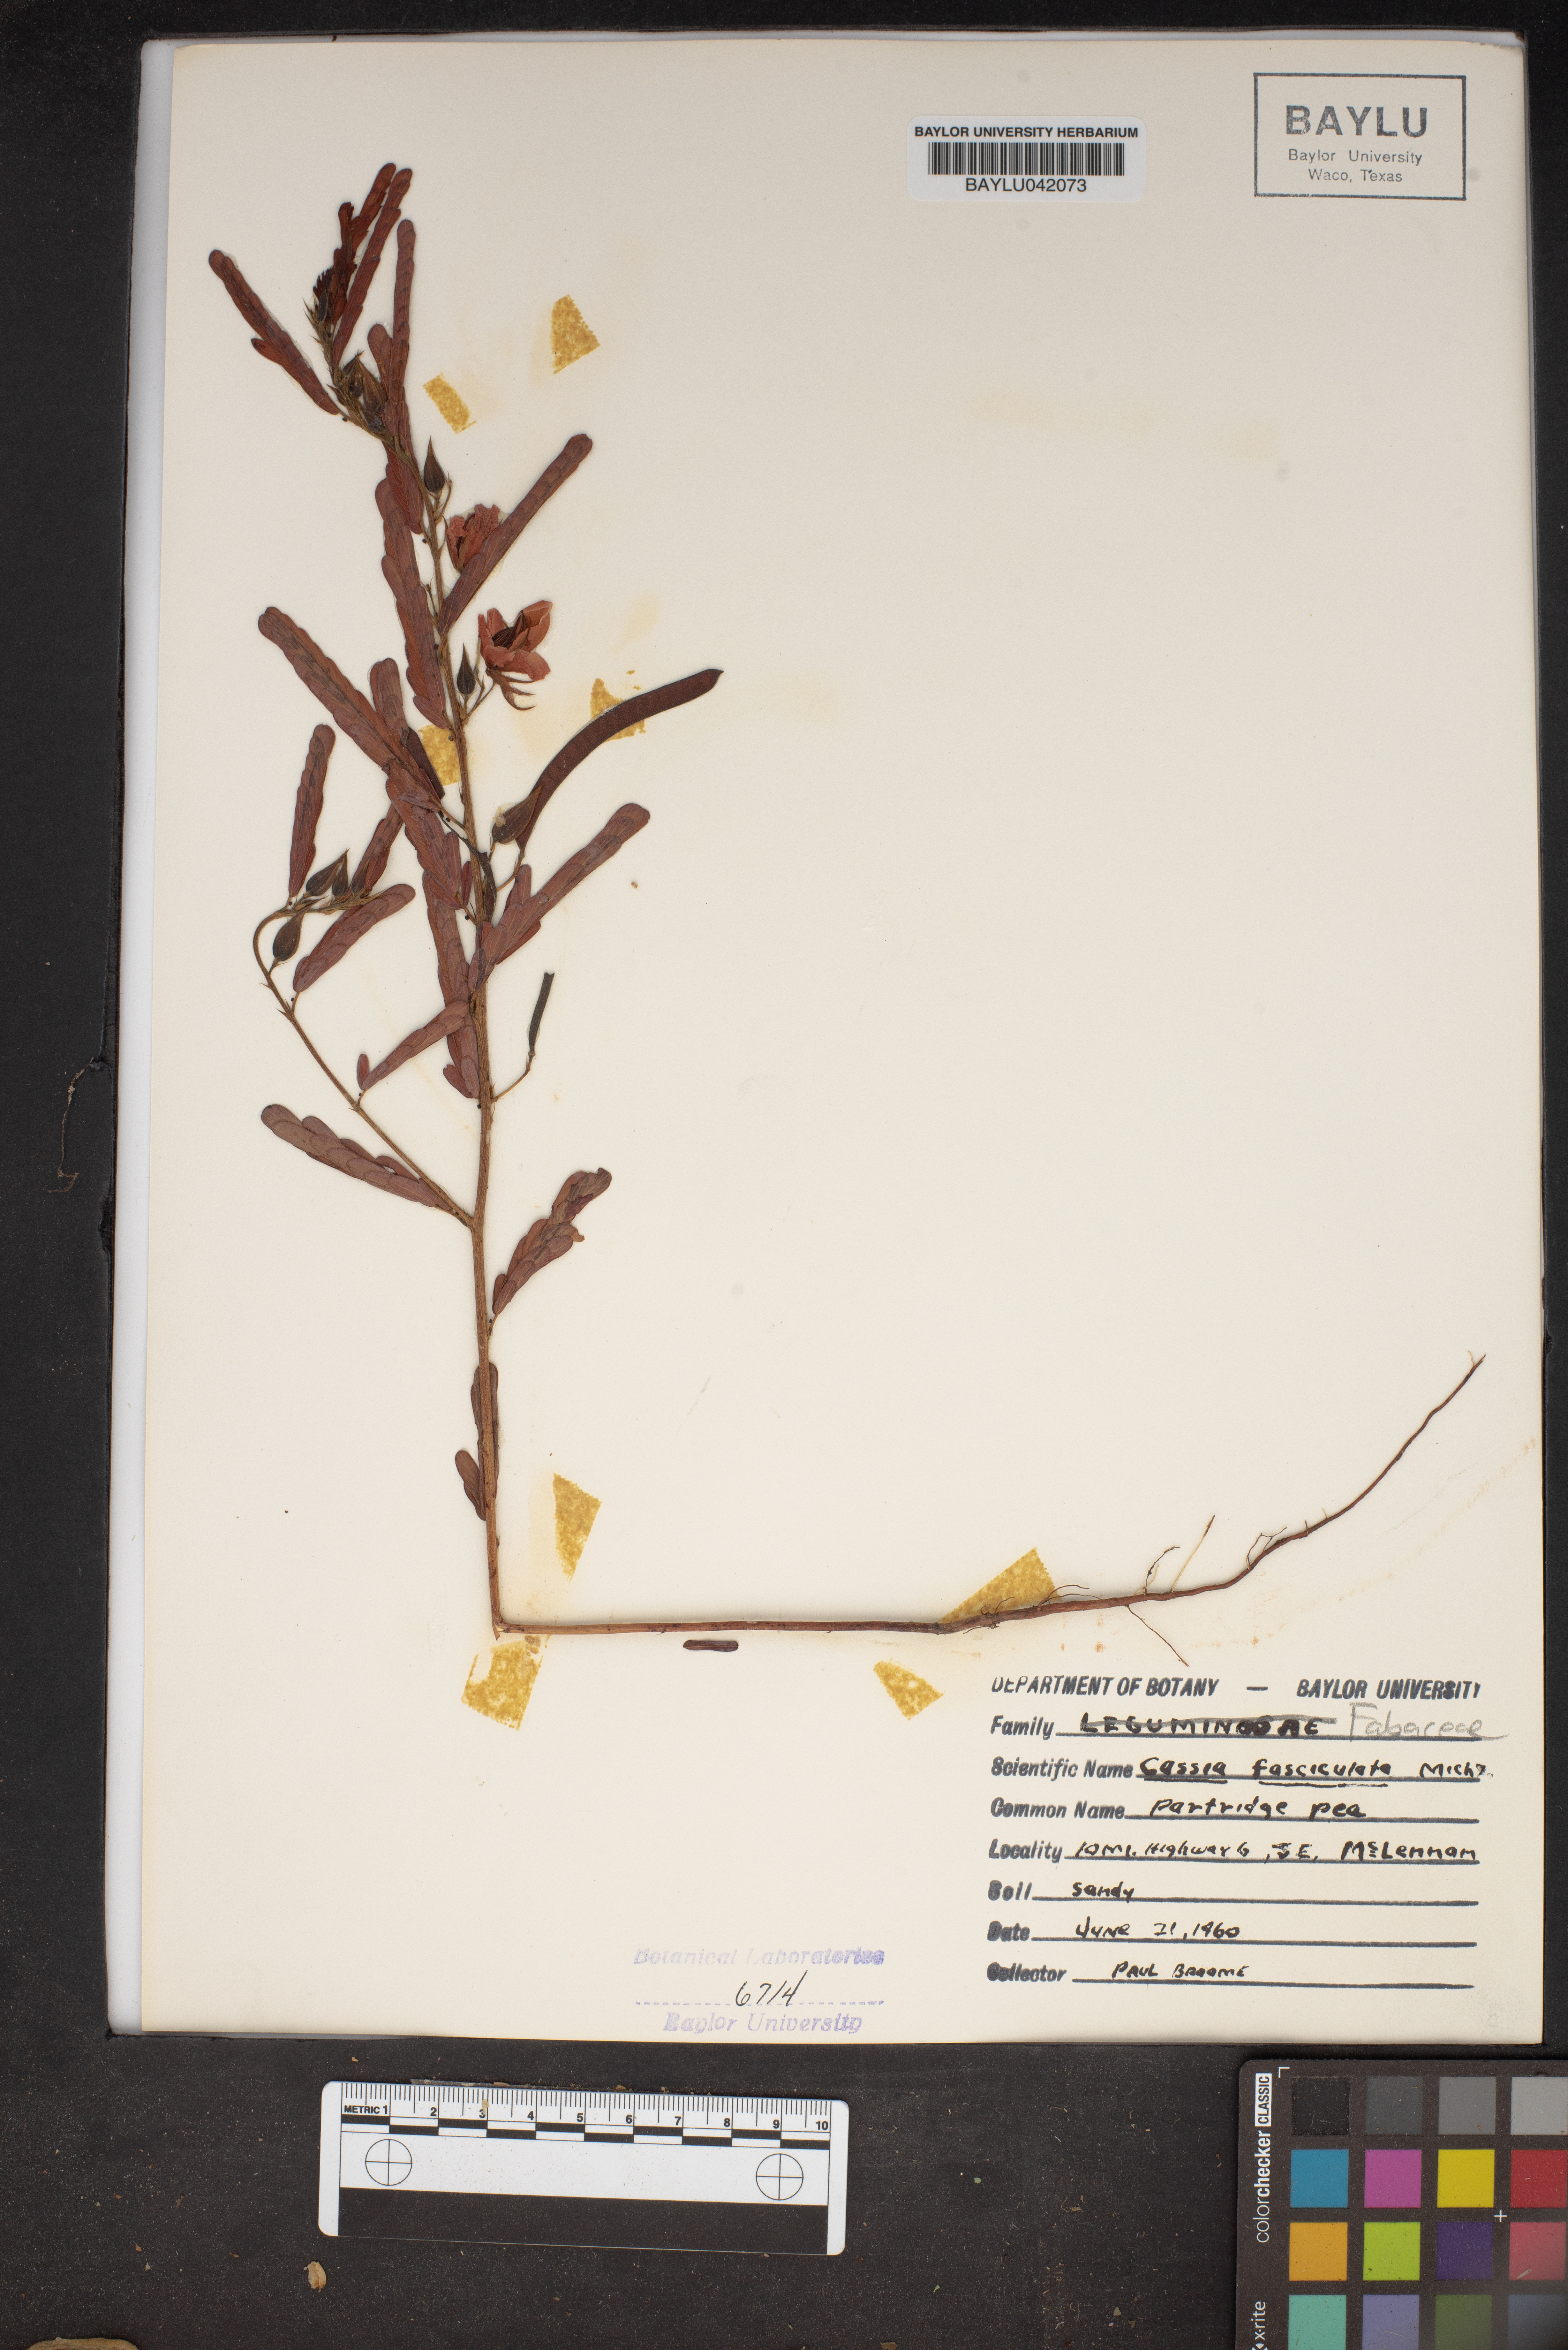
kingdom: Plantae
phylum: Tracheophyta
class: Magnoliopsida
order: Fabales
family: Fabaceae
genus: Chamaecrista
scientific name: Chamaecrista fasciculata
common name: Golden cassia
